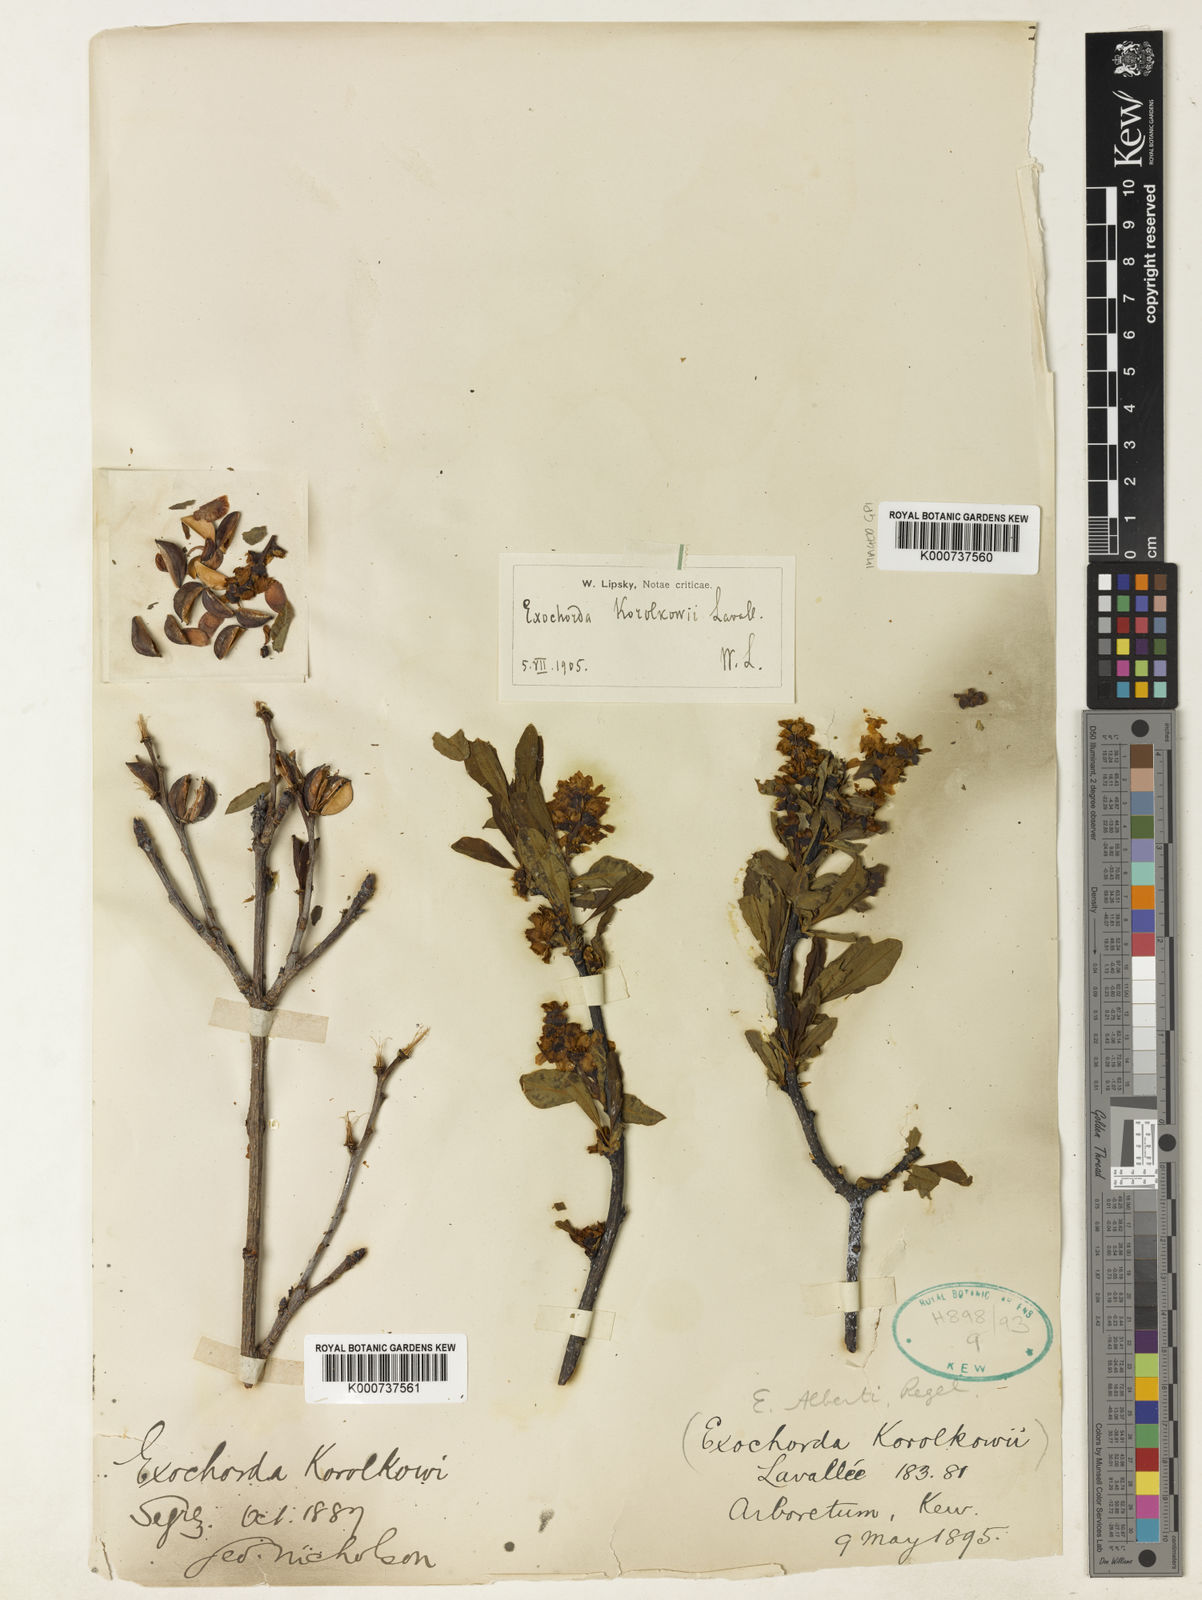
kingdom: Plantae
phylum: Tracheophyta
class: Magnoliopsida
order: Rosales
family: Rosaceae
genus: Exochorda
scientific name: Exochorda racemosa
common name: Common pearlbrush
